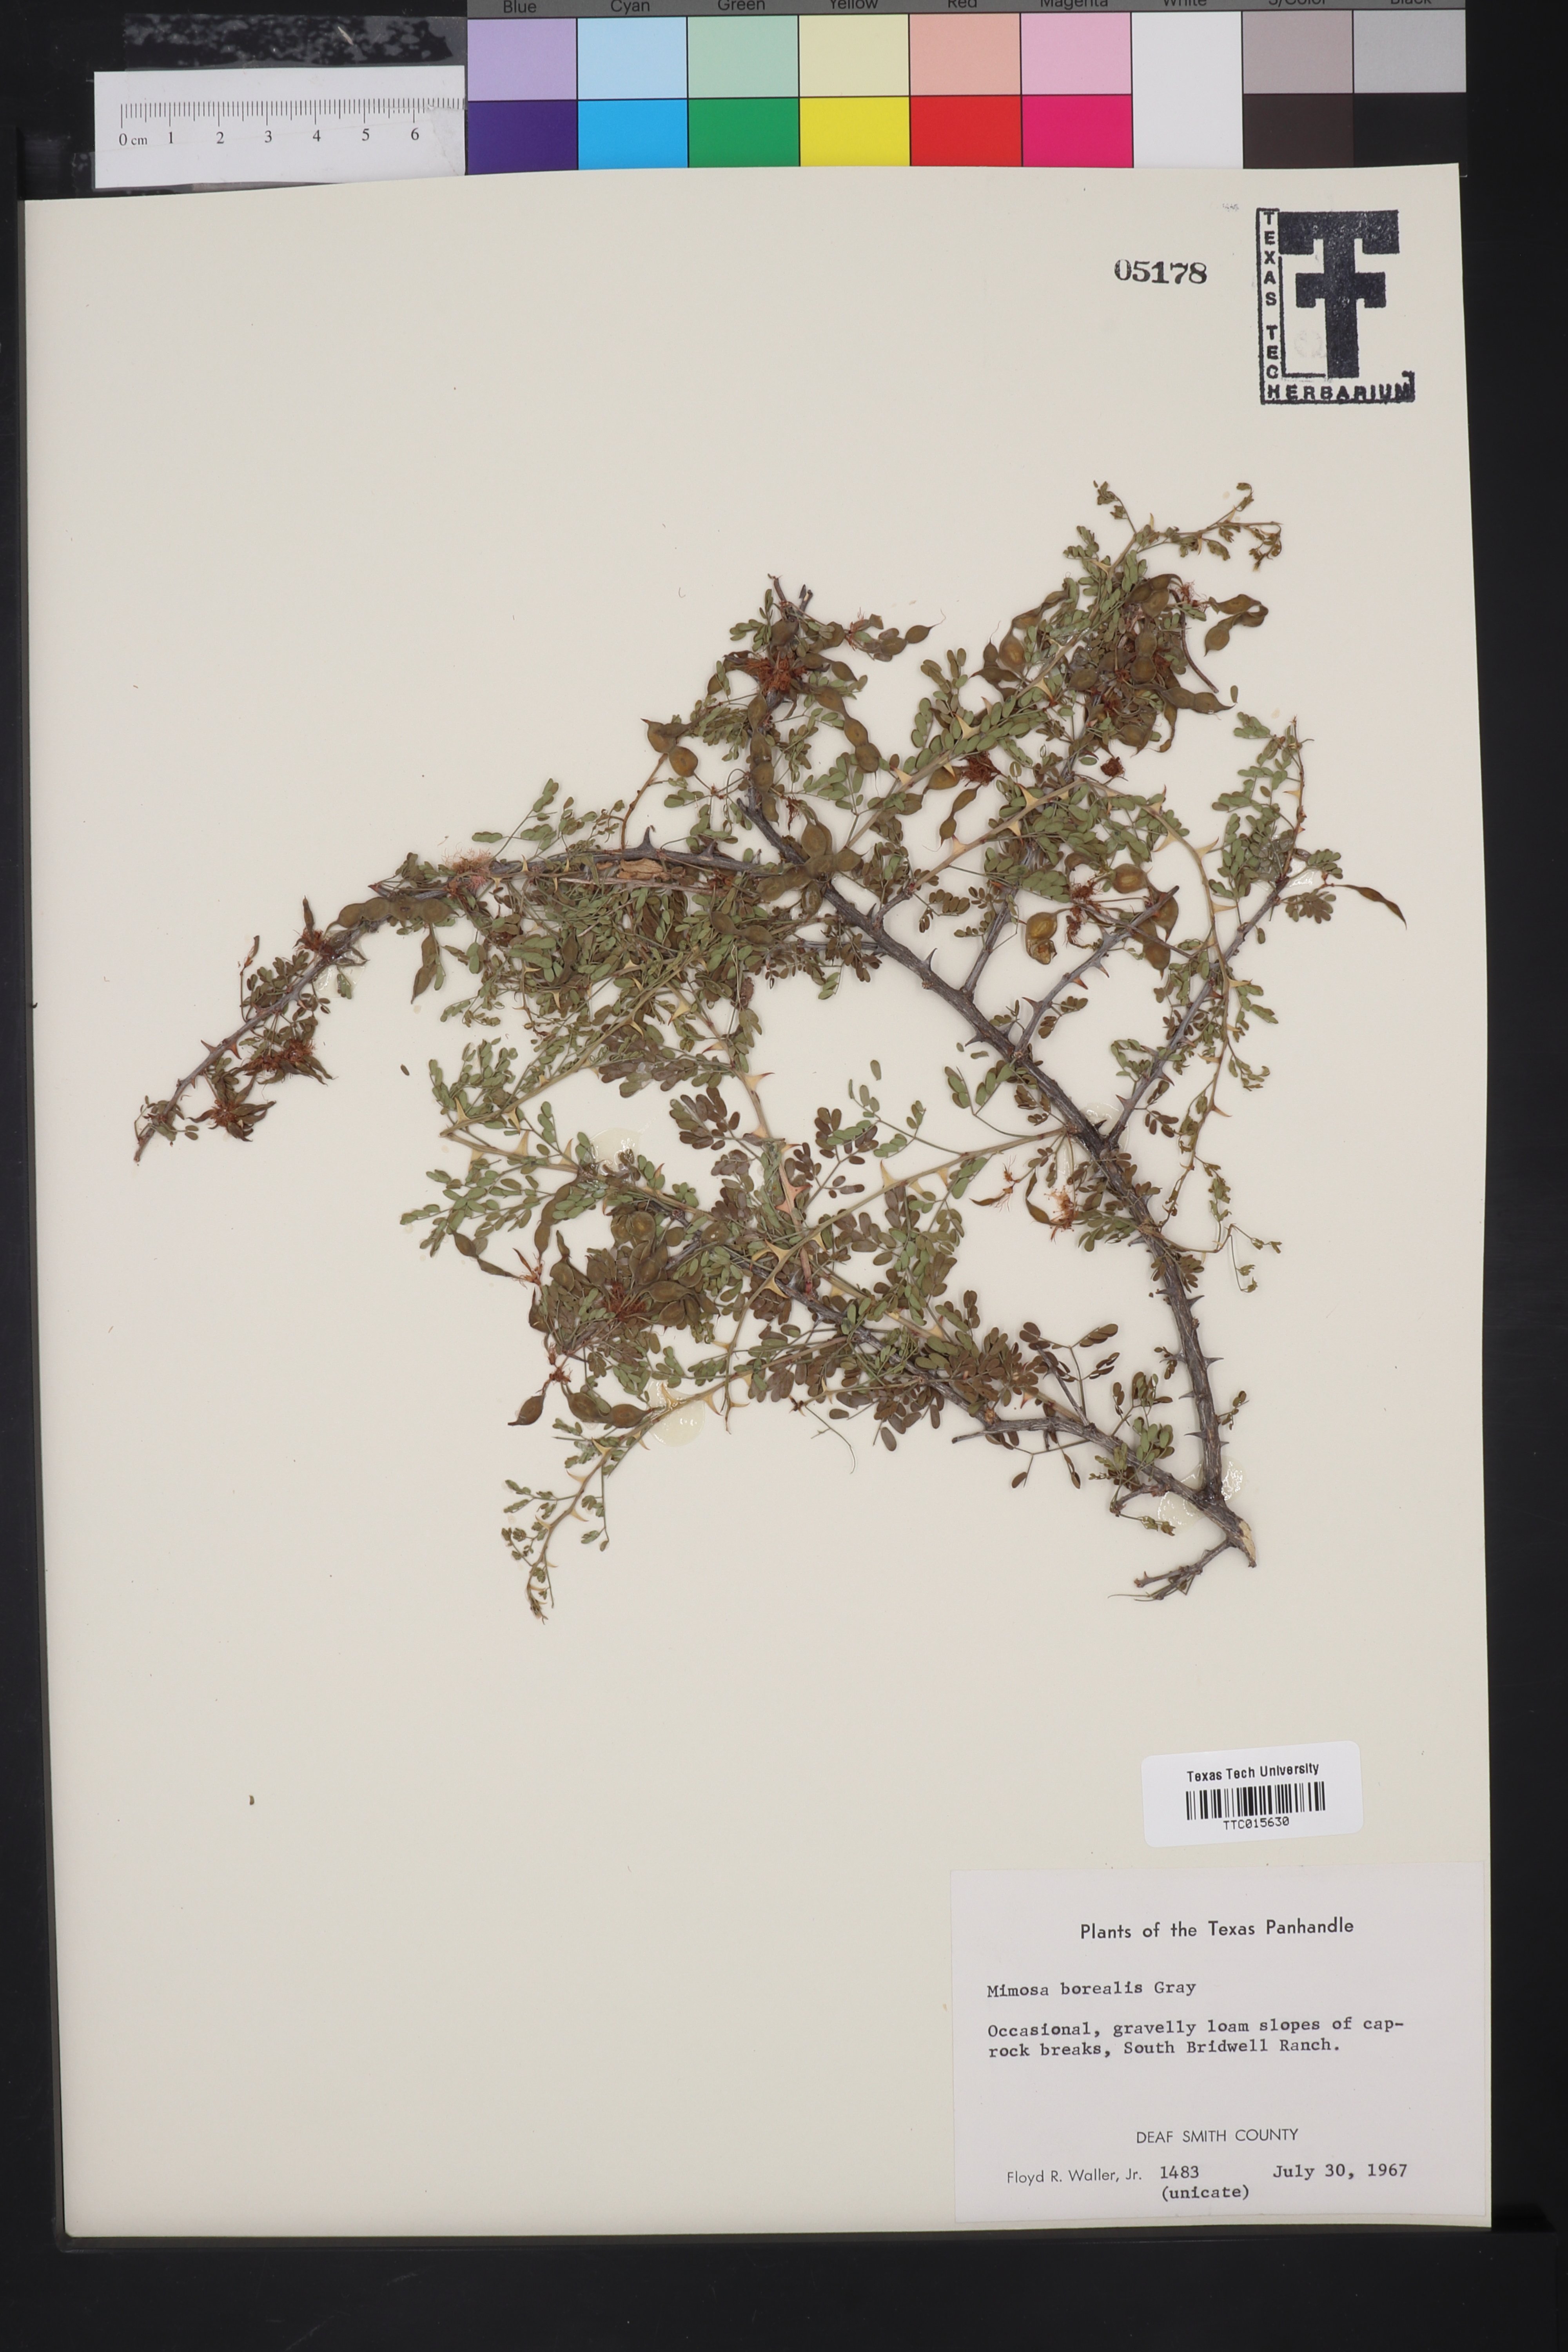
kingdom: Plantae
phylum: Tracheophyta
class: Magnoliopsida
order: Fabales
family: Fabaceae
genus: Mimosa
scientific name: Mimosa borealis
